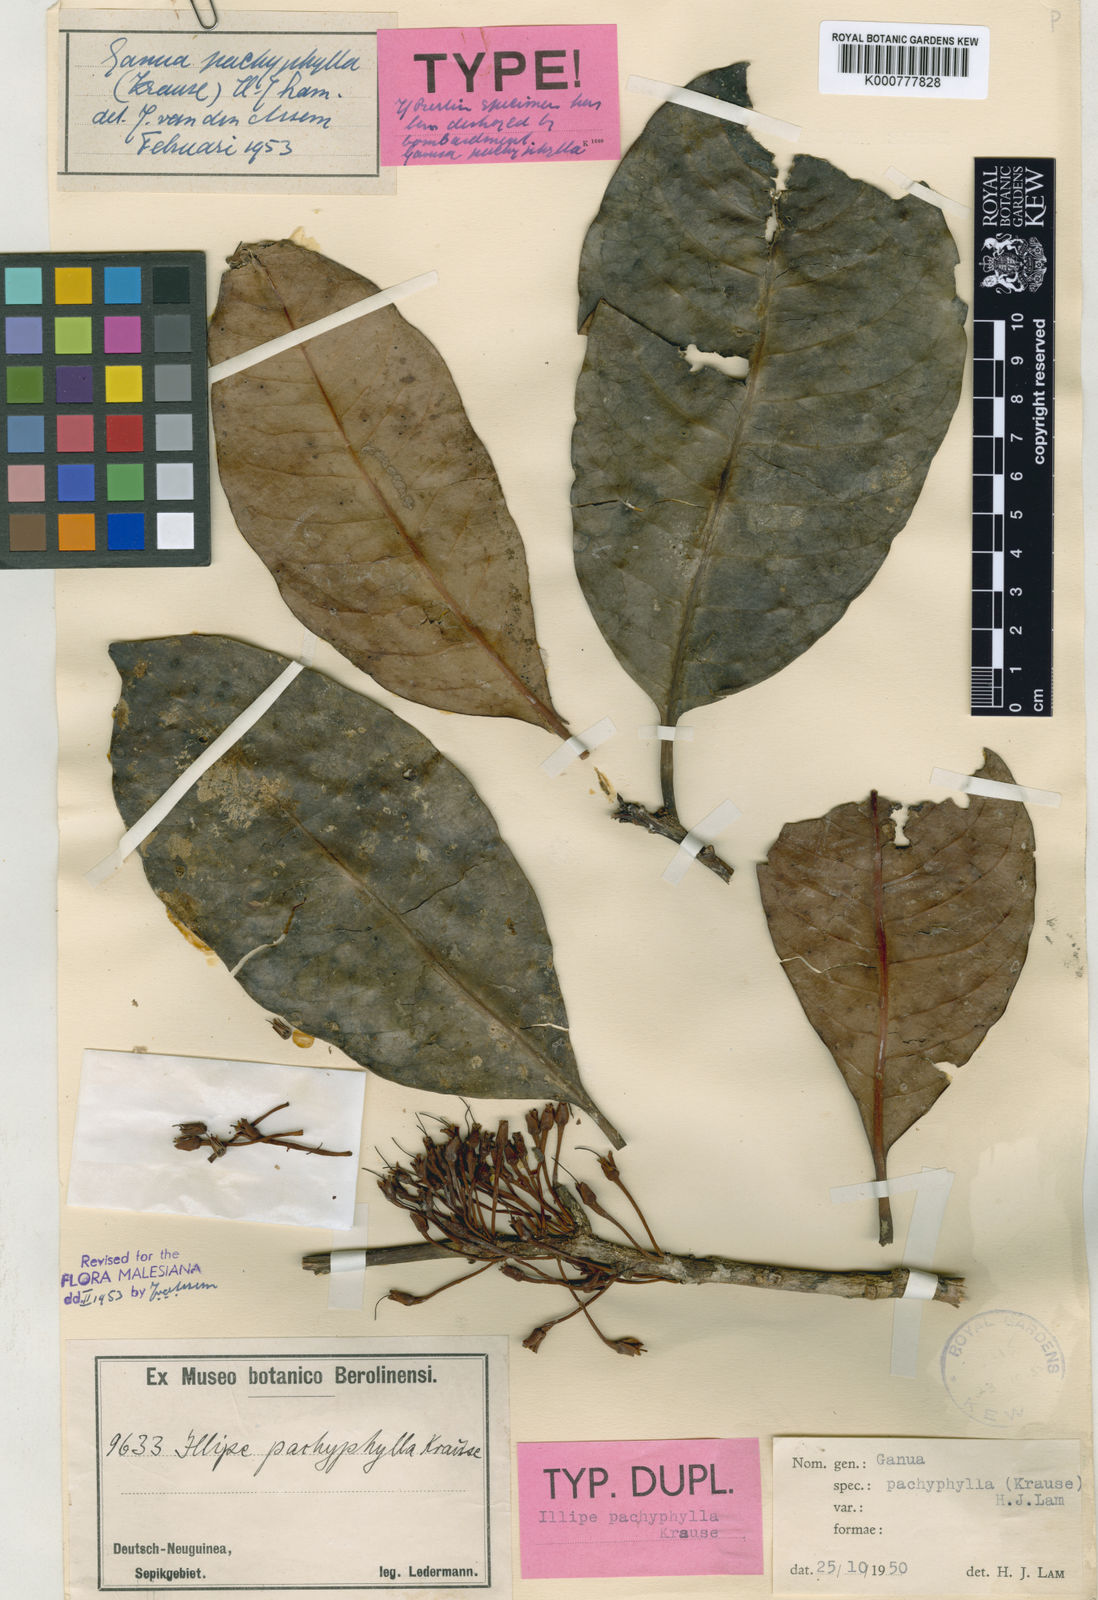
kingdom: Plantae
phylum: Tracheophyta
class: Magnoliopsida
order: Ericales
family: Sapotaceae
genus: Madhuca
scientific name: Madhuca pachyphylla
